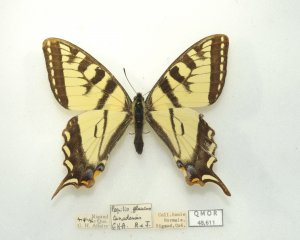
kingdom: Animalia
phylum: Arthropoda
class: Insecta
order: Lepidoptera
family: Papilionidae
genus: Pterourus
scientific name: Pterourus canadensis
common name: Canadian Tiger Swallowtail
